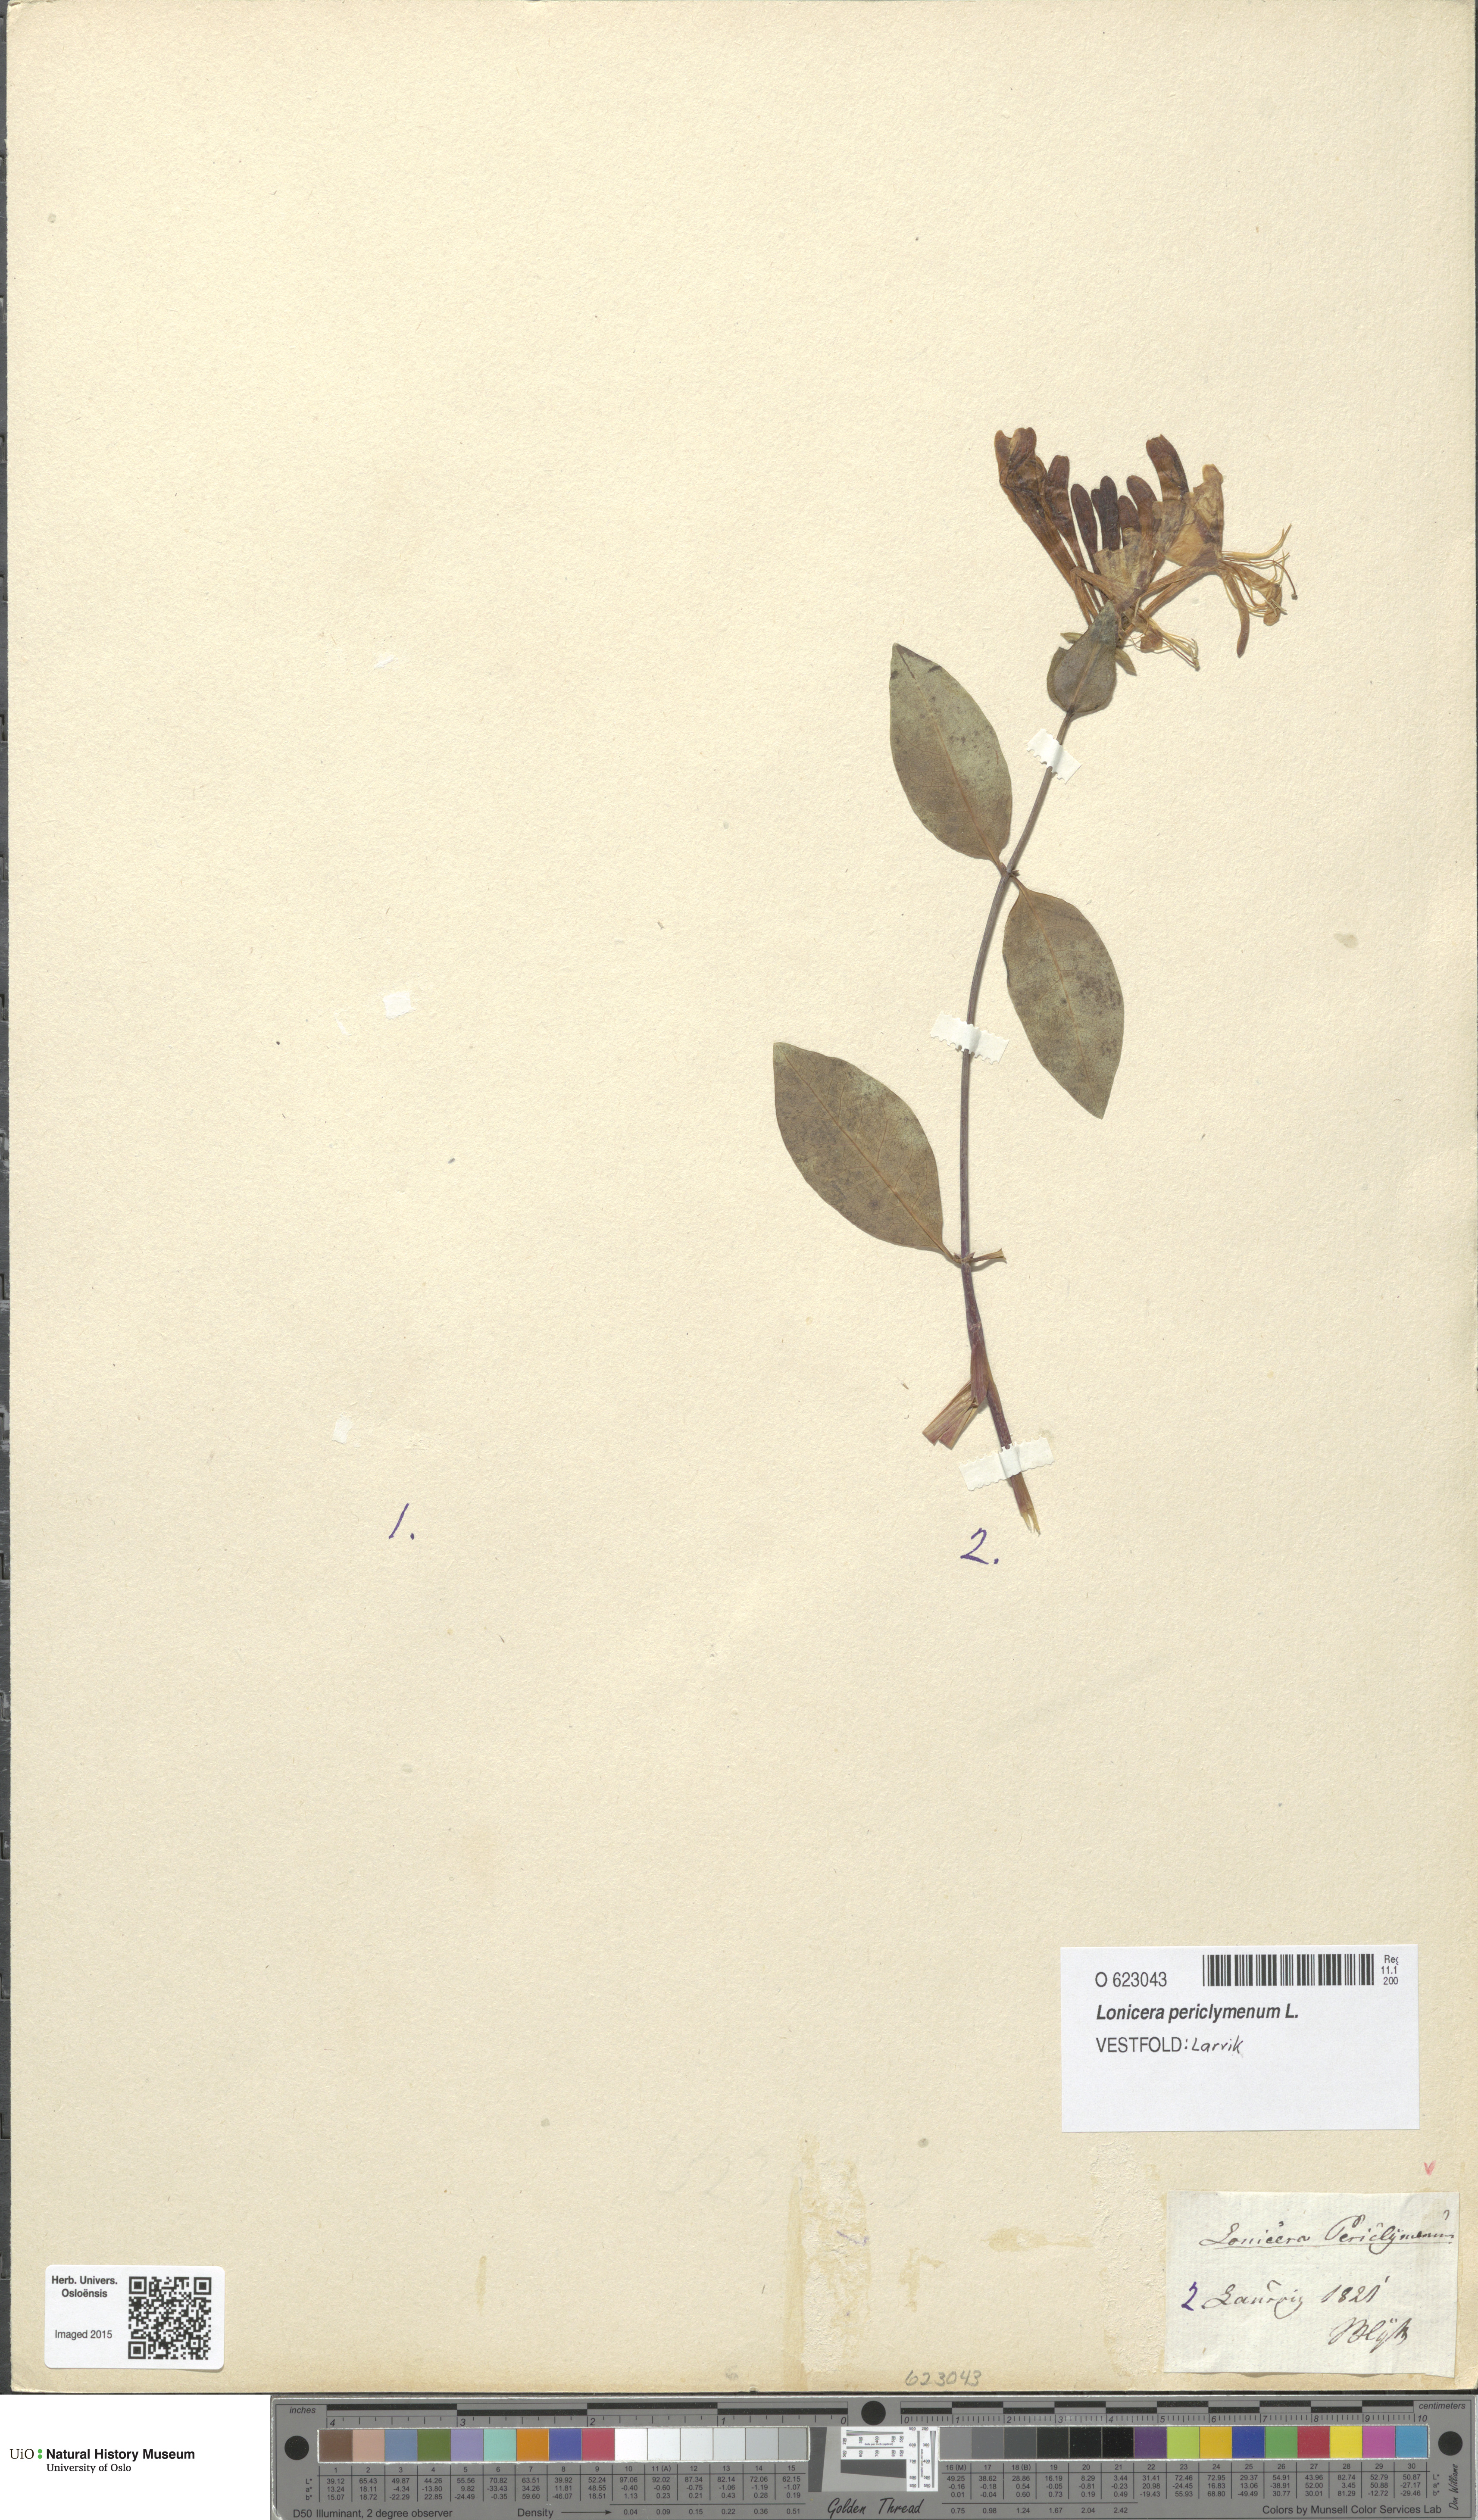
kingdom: Plantae
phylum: Tracheophyta
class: Magnoliopsida
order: Dipsacales
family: Caprifoliaceae
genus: Lonicera
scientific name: Lonicera periclymenum
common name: European honeysuckle
